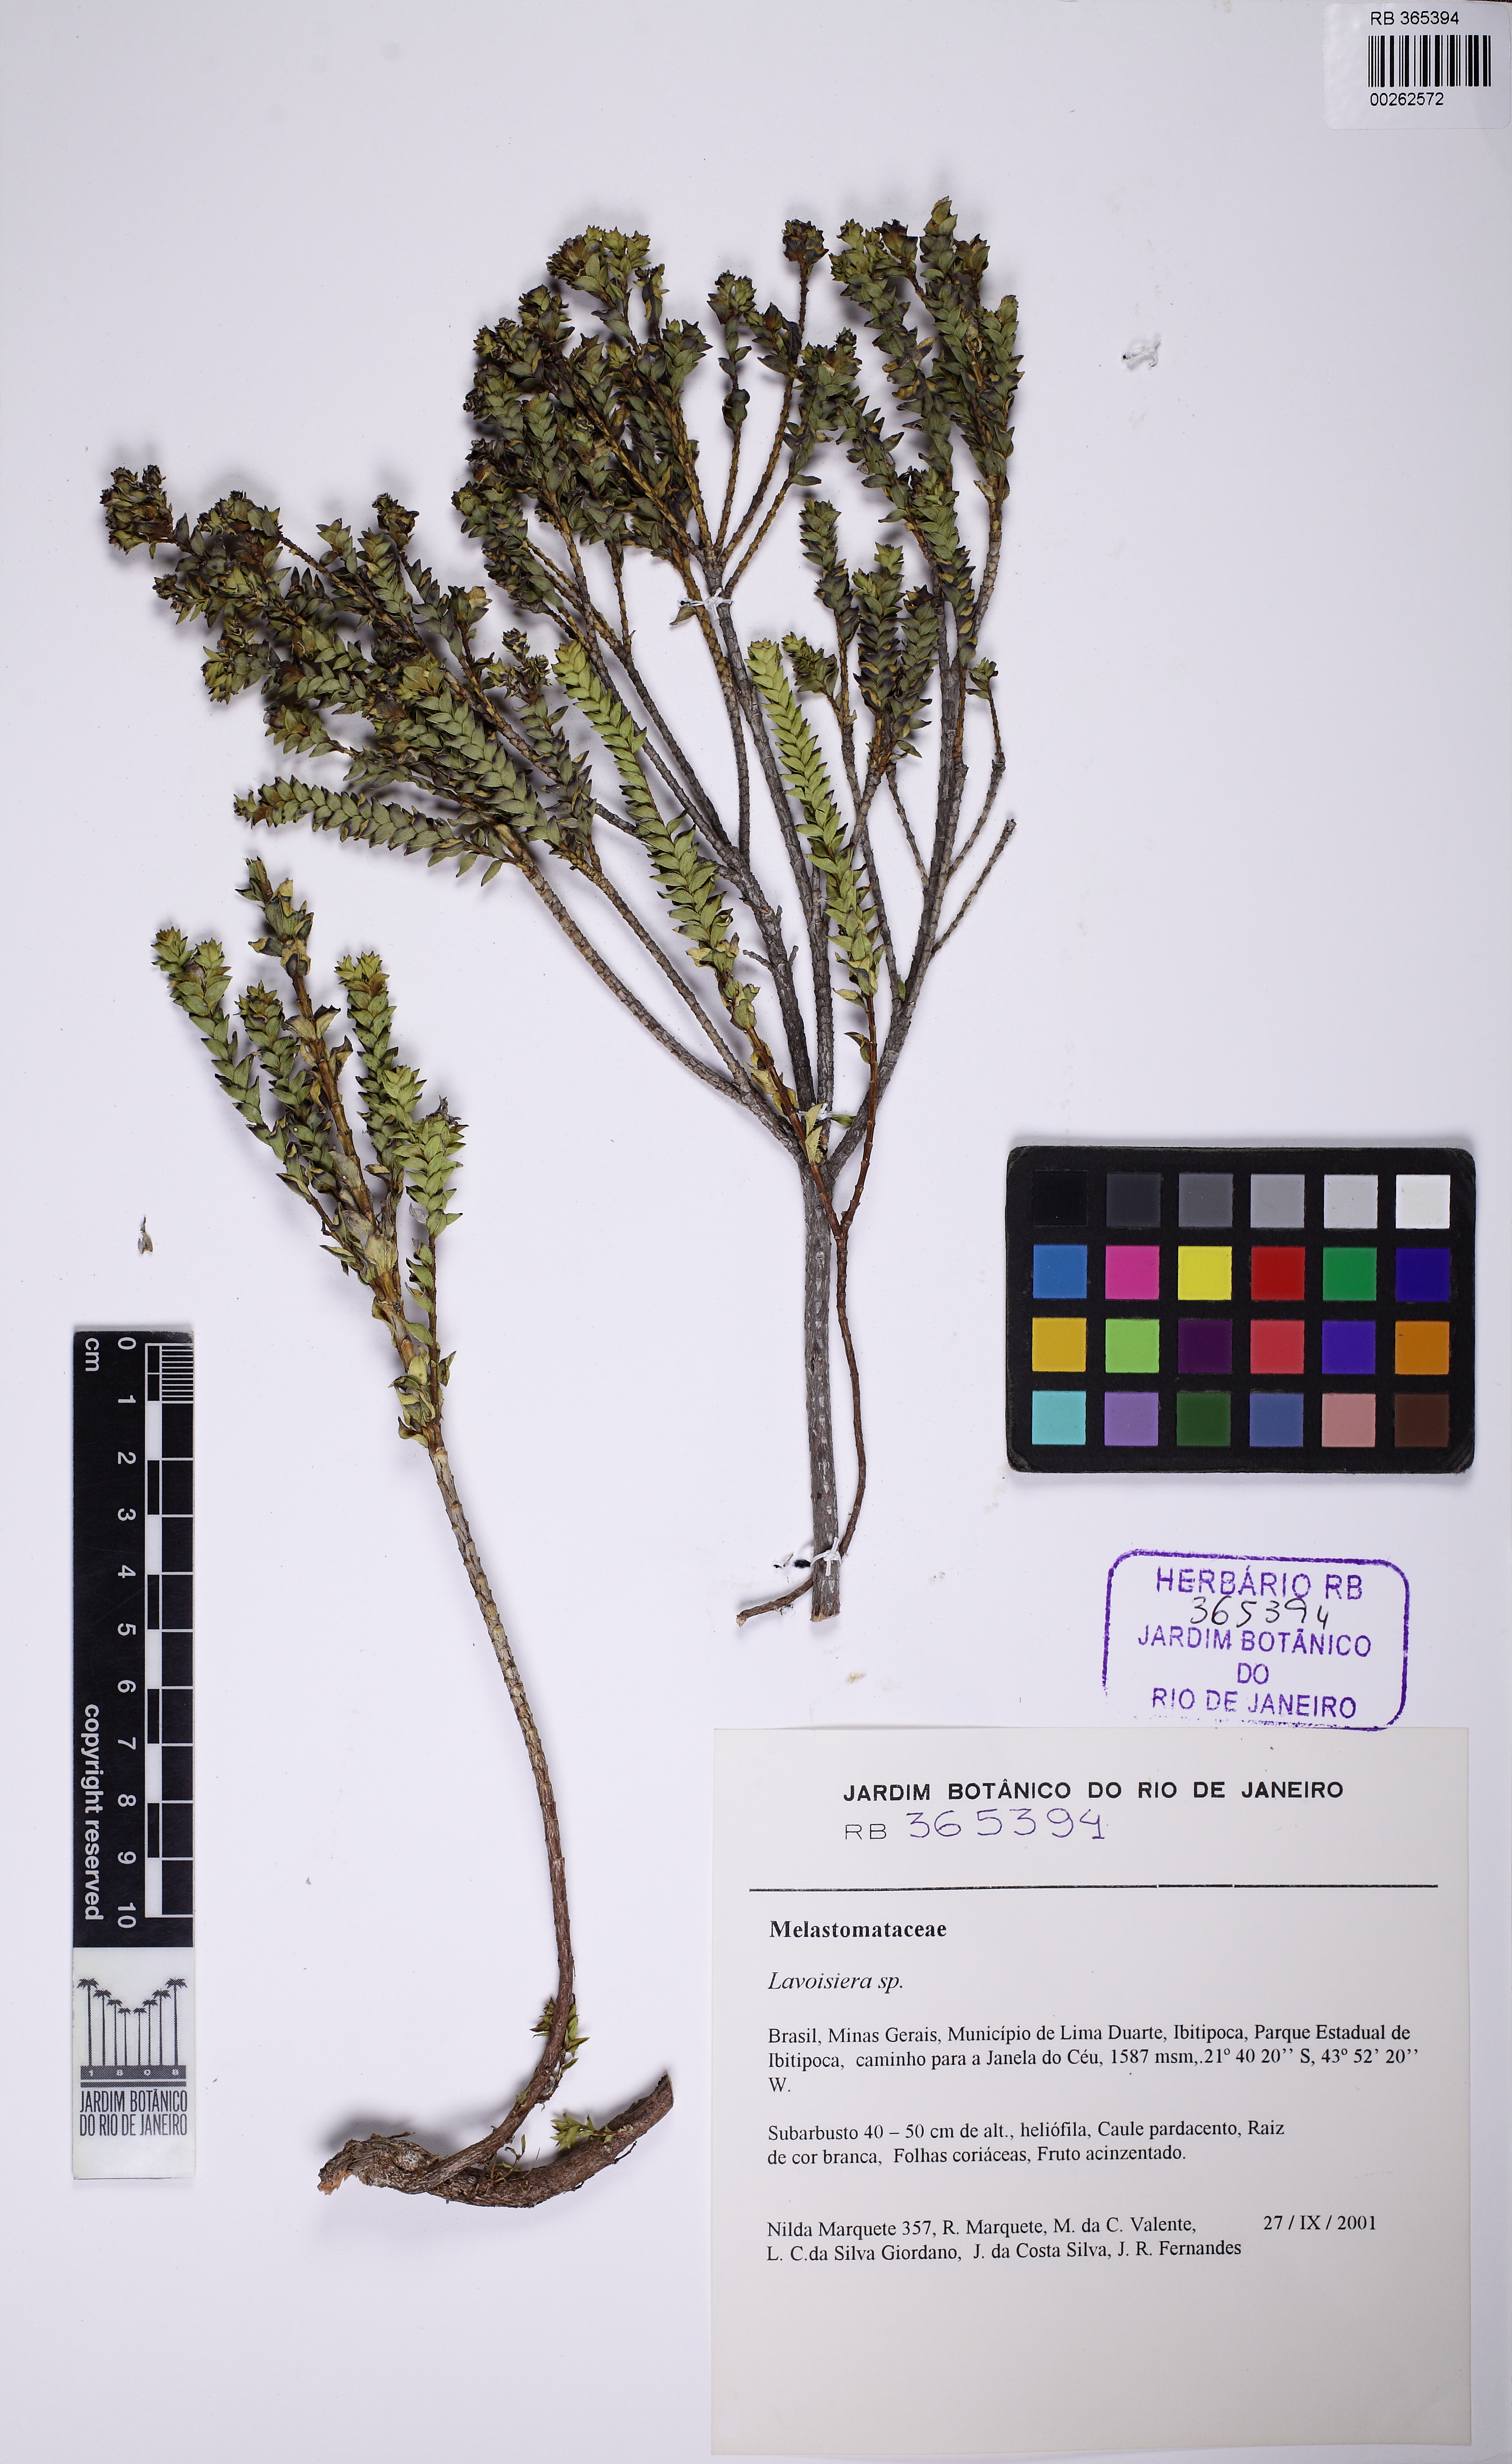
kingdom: Plantae
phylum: Tracheophyta
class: Magnoliopsida
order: Myrtales
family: Melastomataceae
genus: Microlicia
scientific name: Microlicia
